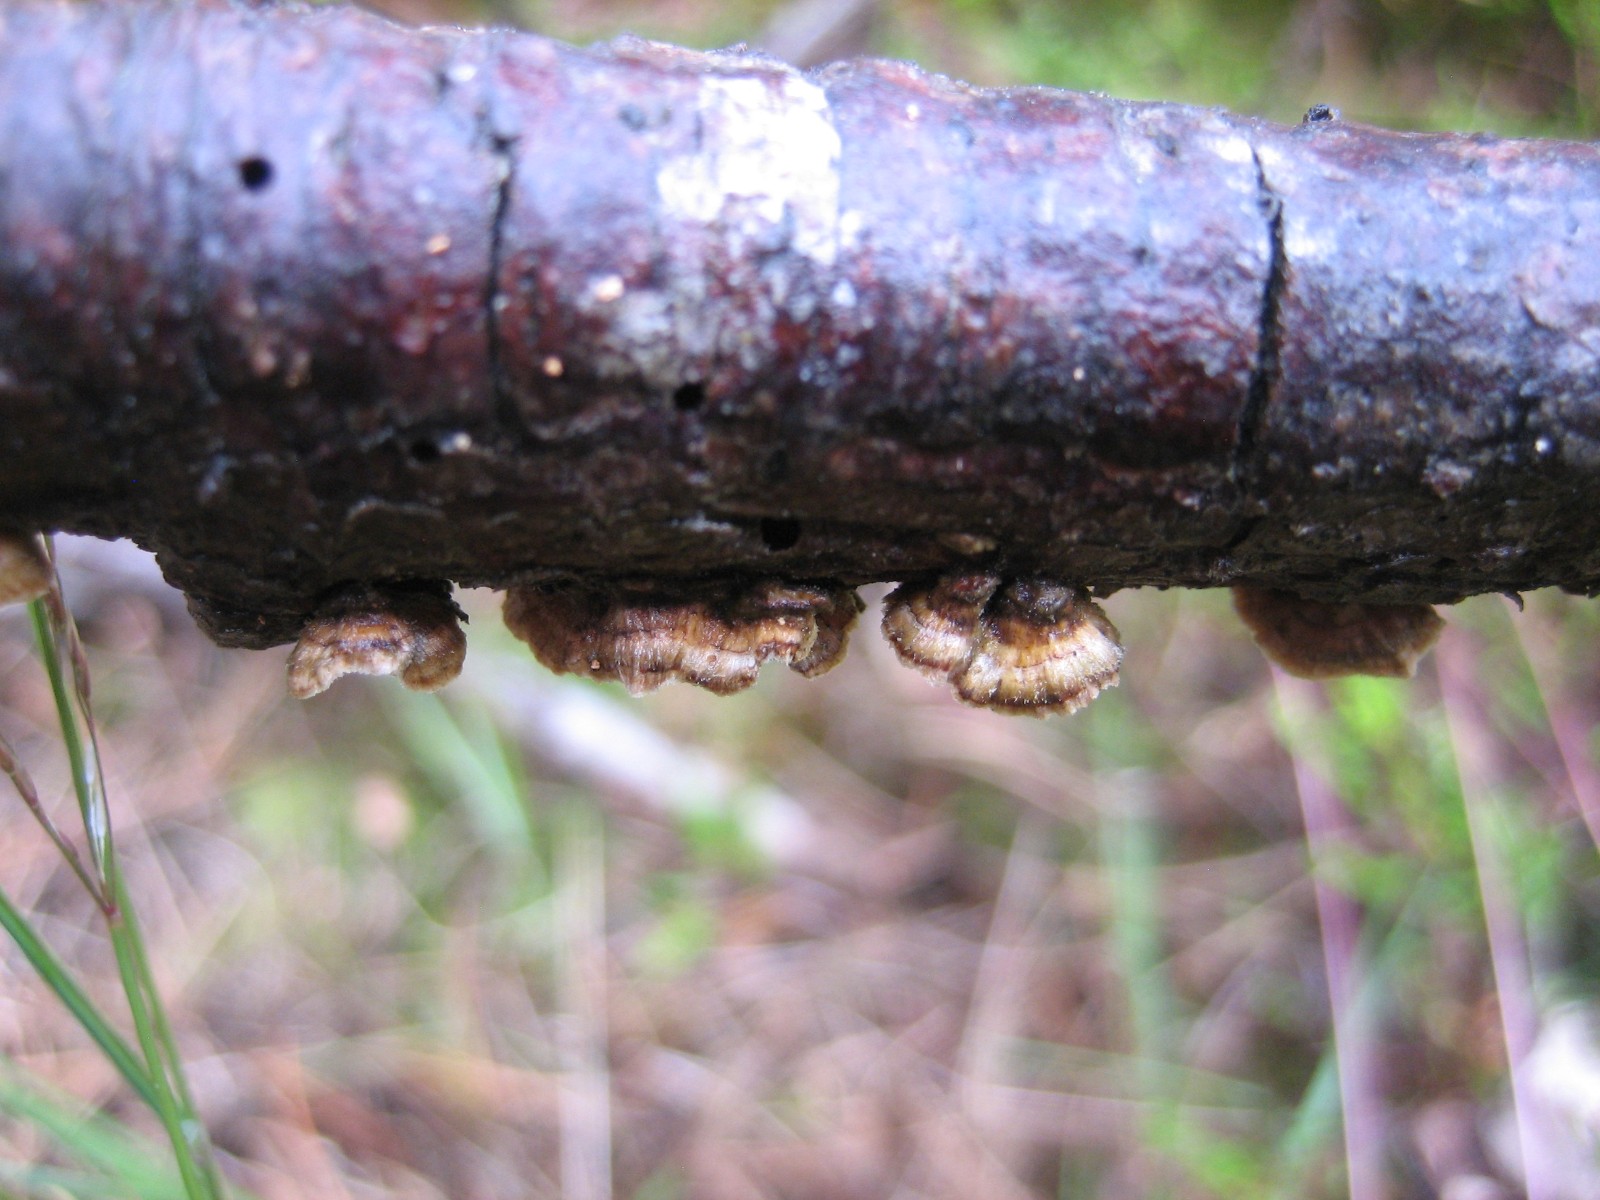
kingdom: Fungi
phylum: Basidiomycota
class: Agaricomycetes
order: Russulales
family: Stereaceae
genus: Stereum
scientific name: Stereum sanguinolentum
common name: blødende lædersvamp
